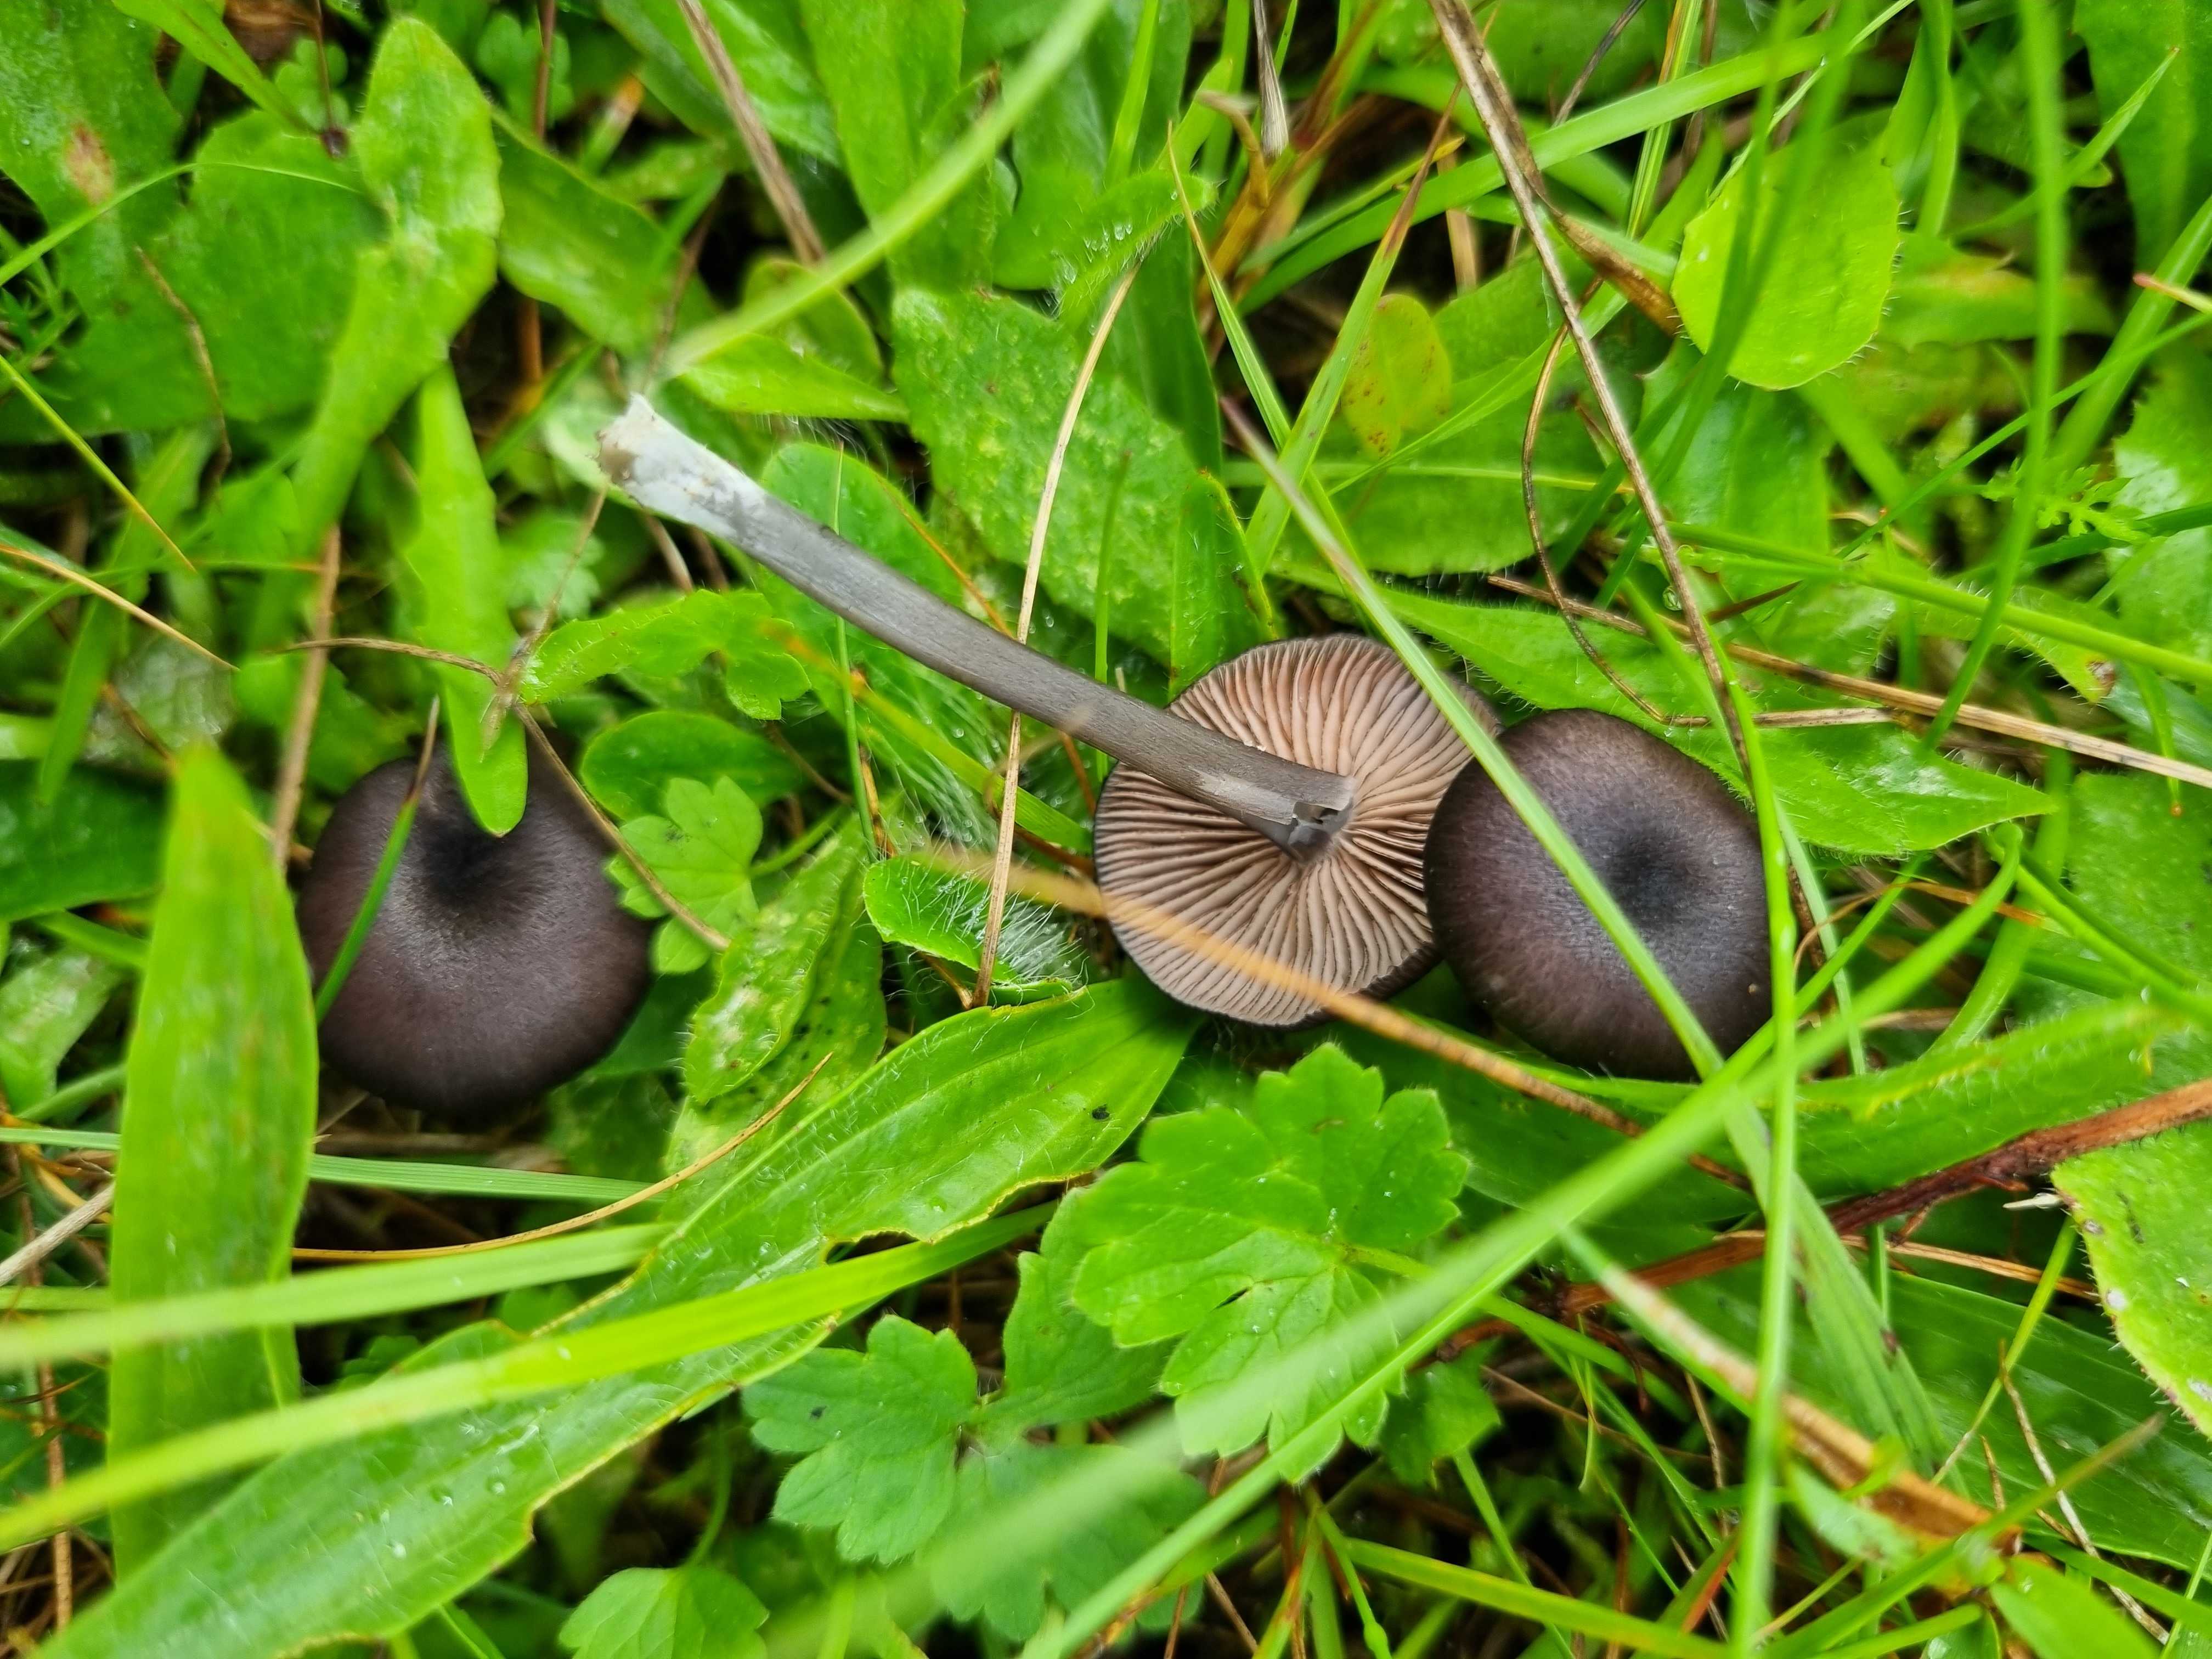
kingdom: Fungi
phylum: Basidiomycota
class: Agaricomycetes
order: Agaricales
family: Entolomataceae
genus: Entoloma
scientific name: Entoloma
